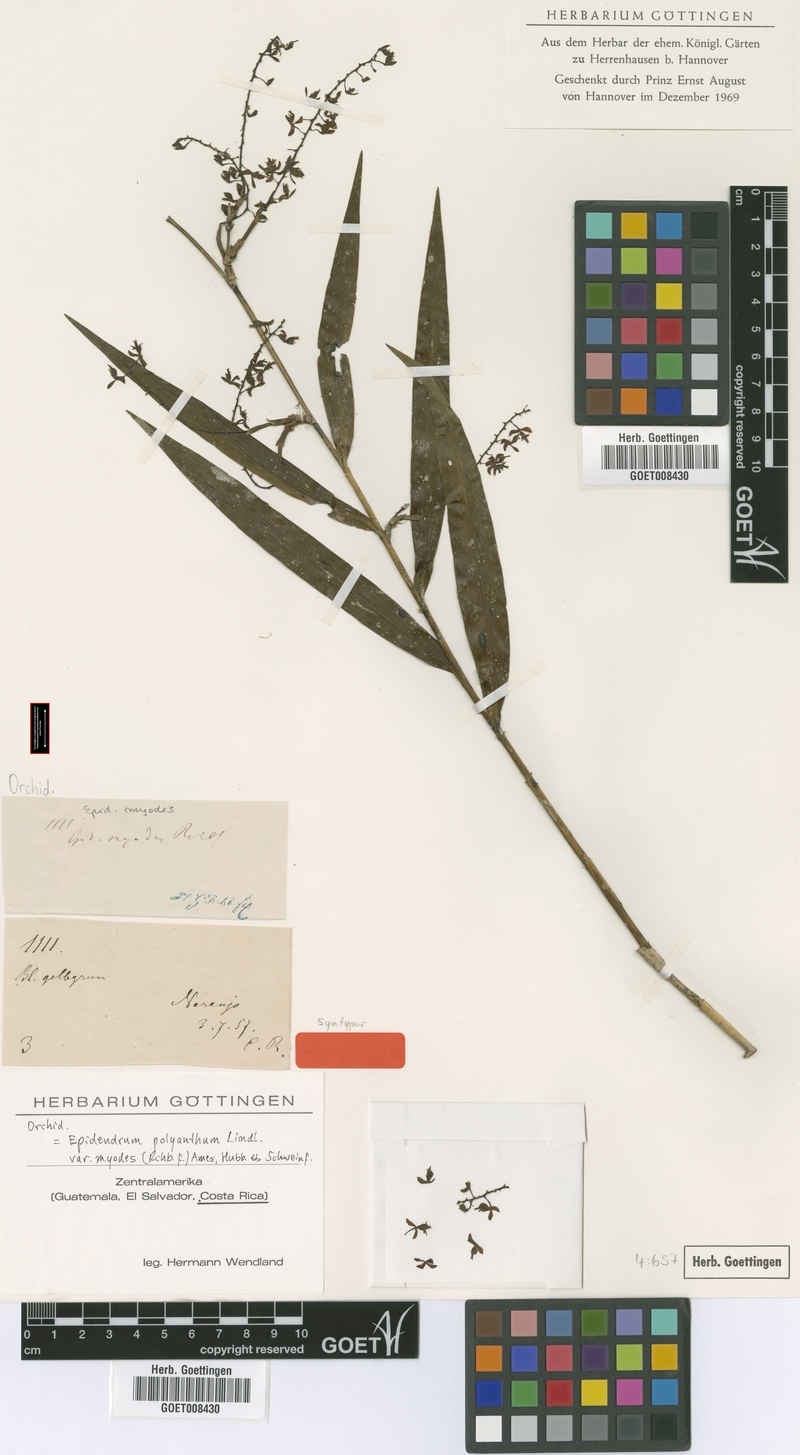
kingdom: Plantae
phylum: Tracheophyta
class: Liliopsida
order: Asparagales
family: Orchidaceae
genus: Epidendrum
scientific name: Epidendrum polyanthum
